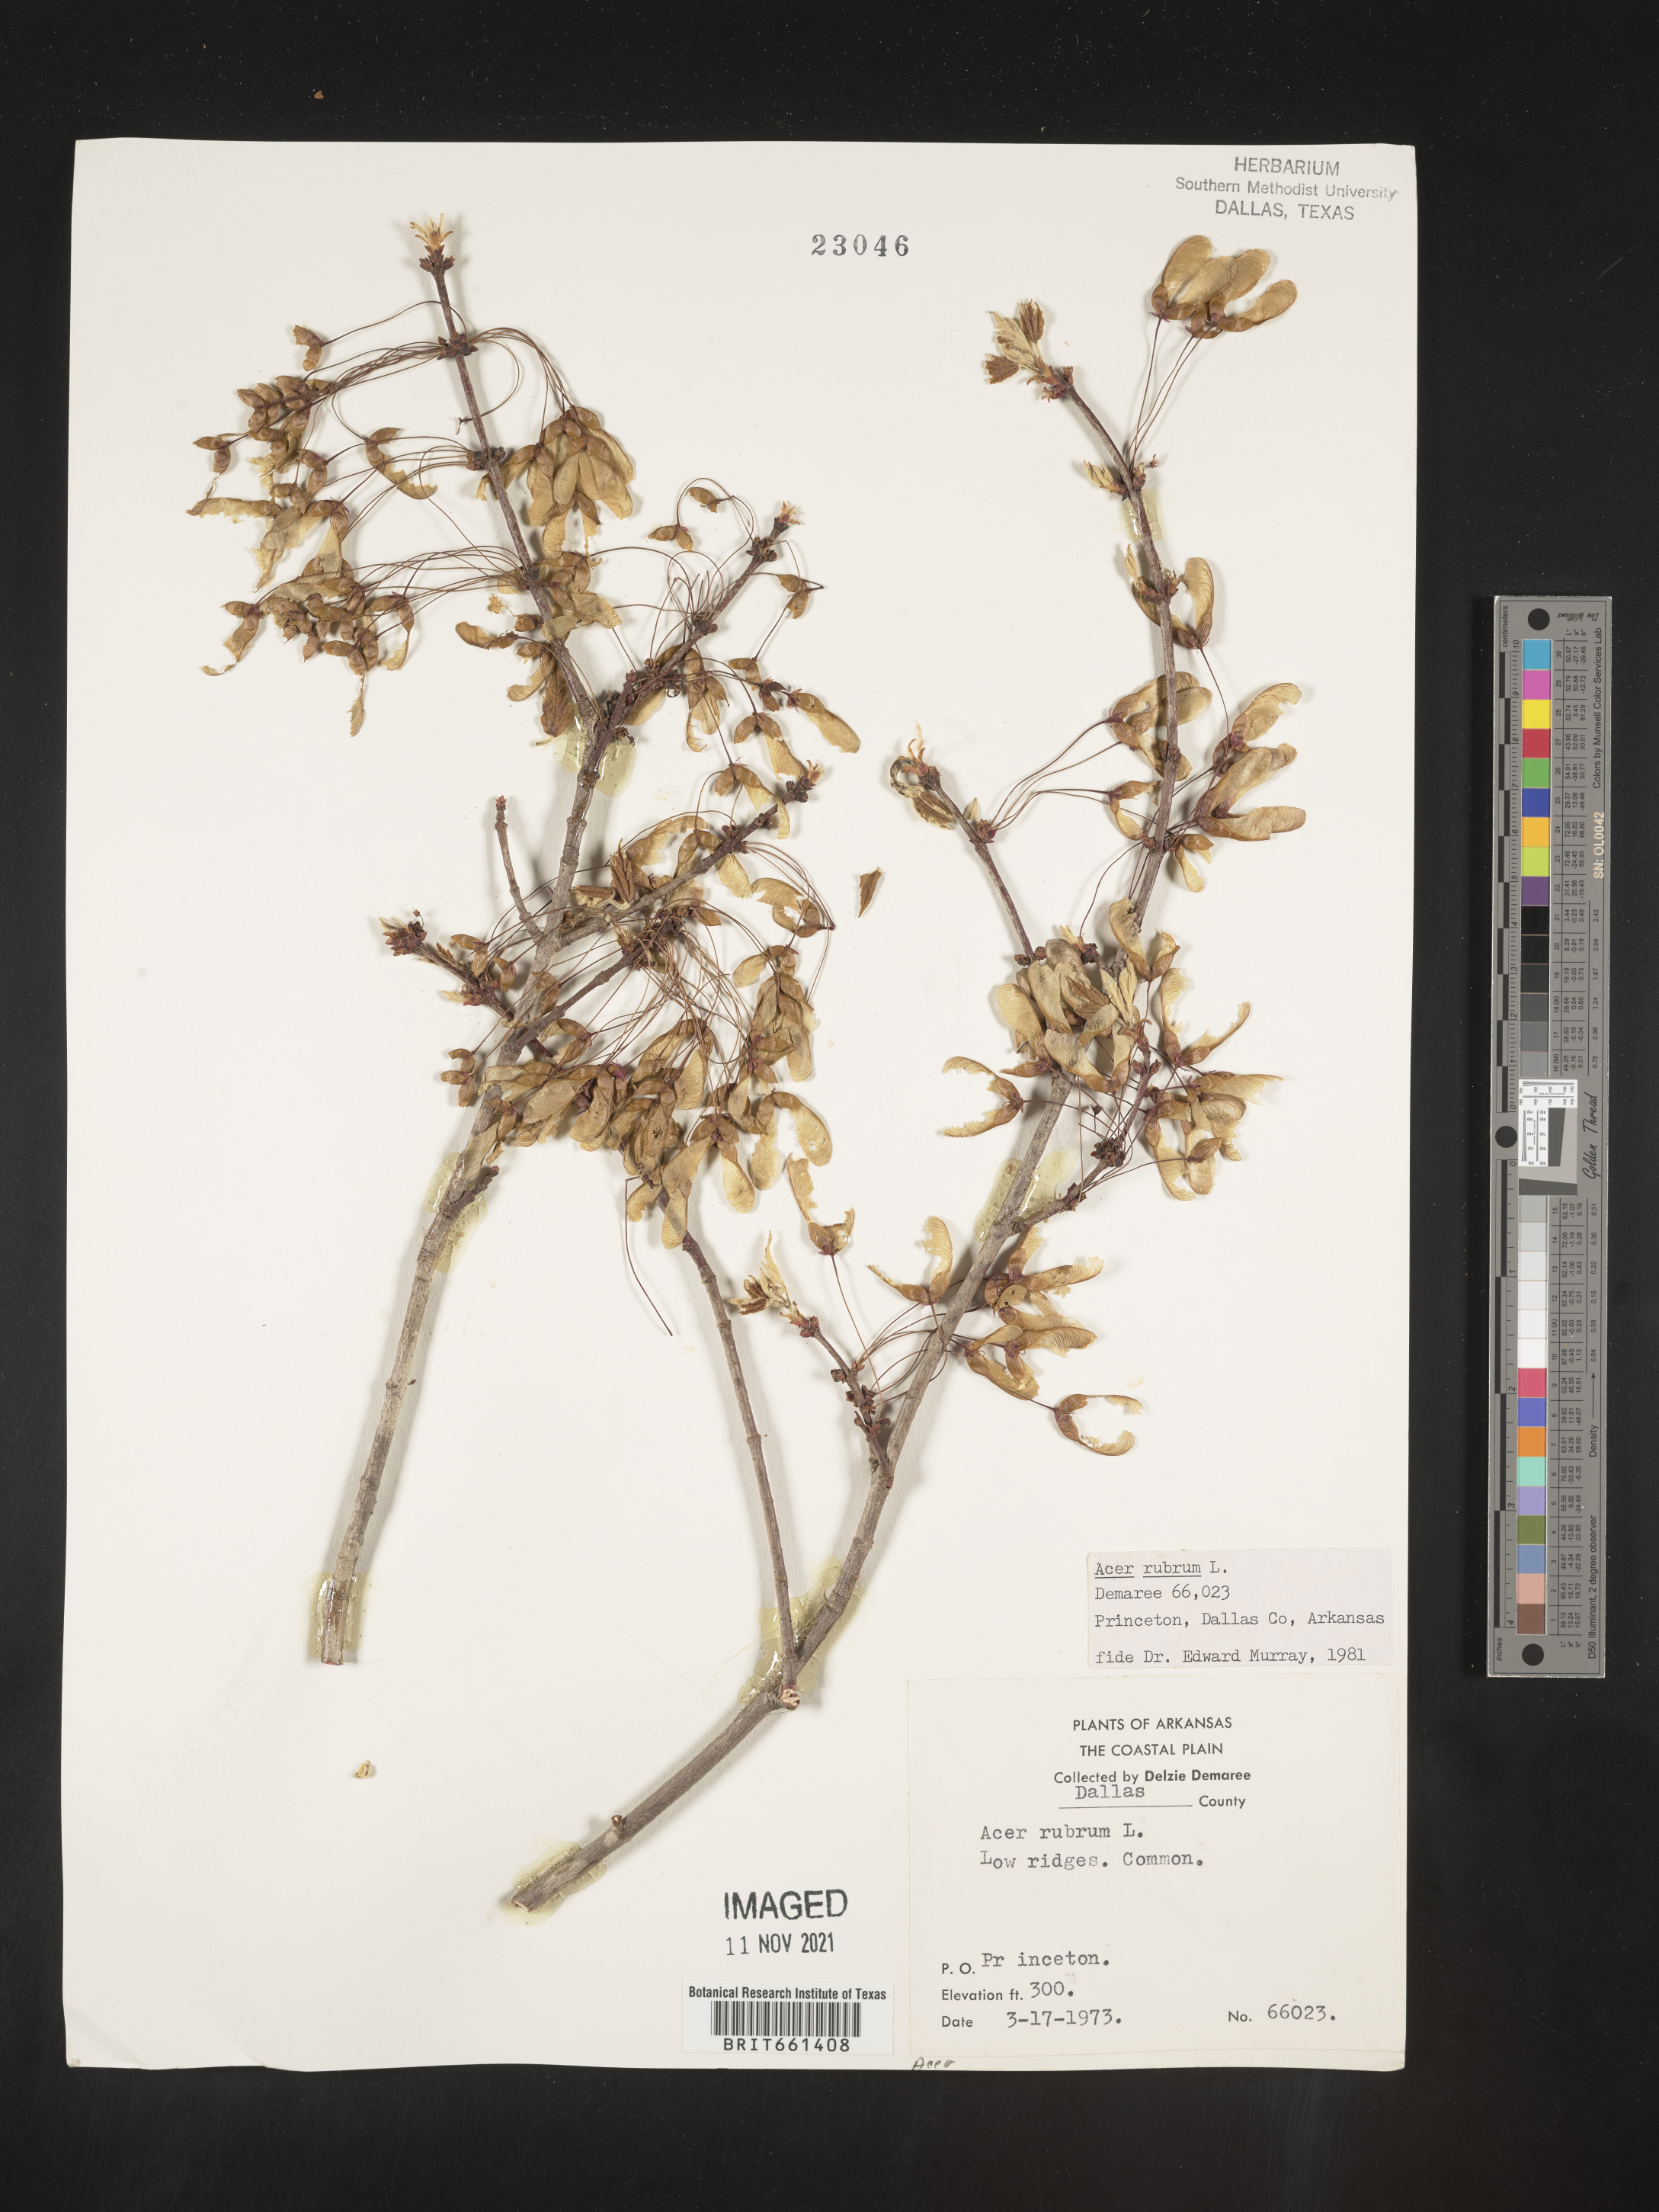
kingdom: Plantae
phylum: Tracheophyta
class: Magnoliopsida
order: Sapindales
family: Sapindaceae
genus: Acer
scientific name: Acer rubrum
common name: Red maple
